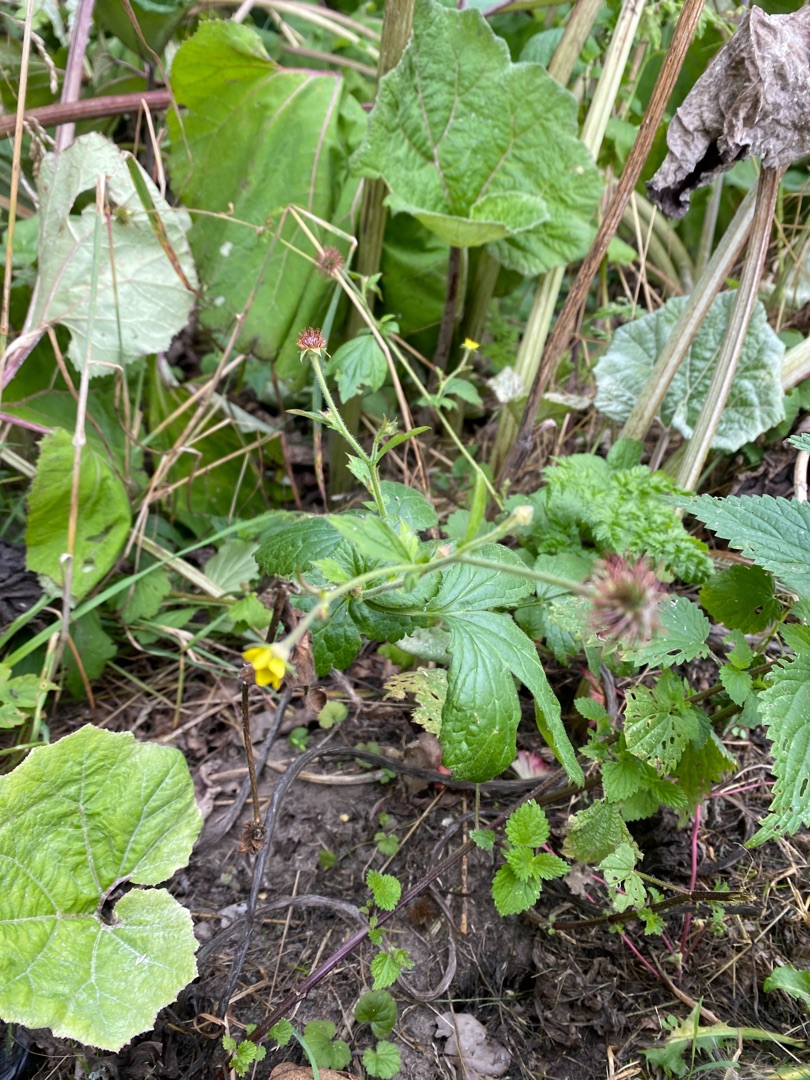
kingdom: Plantae
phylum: Tracheophyta
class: Magnoliopsida
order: Rosales
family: Rosaceae
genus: Geum
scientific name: Geum urbanum
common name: Feber-nellikerod
